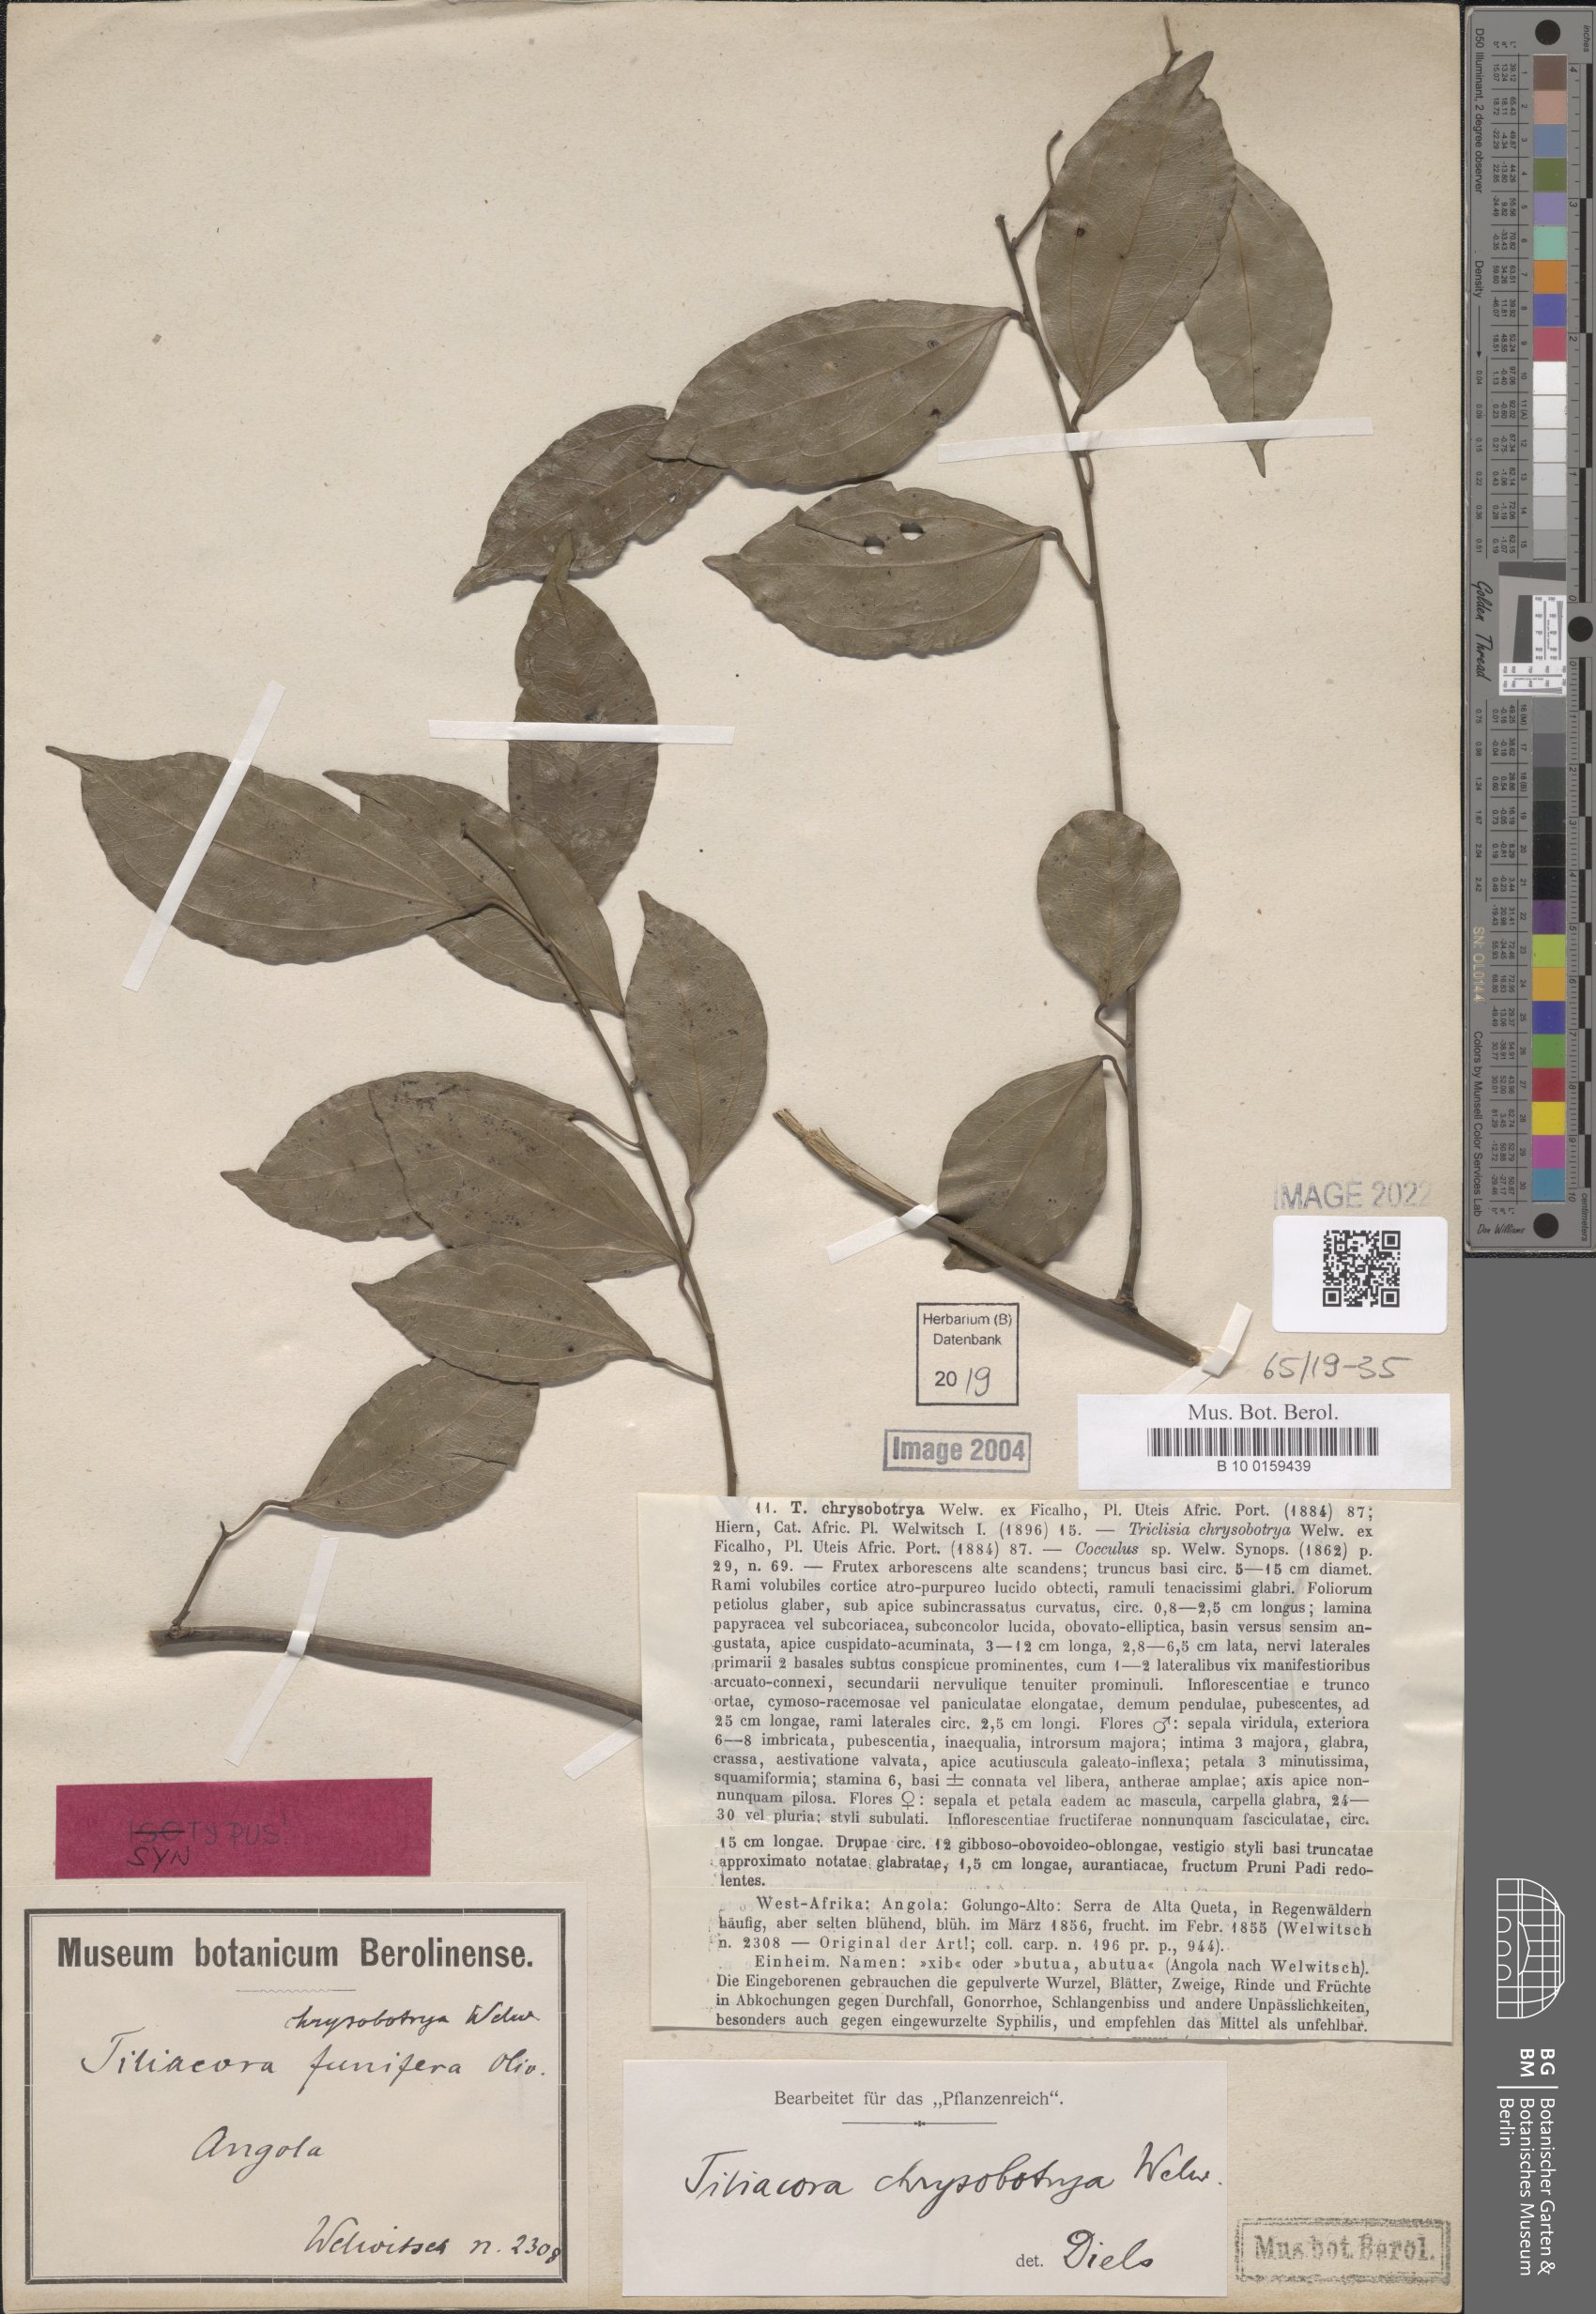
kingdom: Plantae
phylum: Tracheophyta
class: Magnoliopsida
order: Ranunculales
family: Menispermaceae
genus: Tiliacora
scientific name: Tiliacora chrysobotrya
